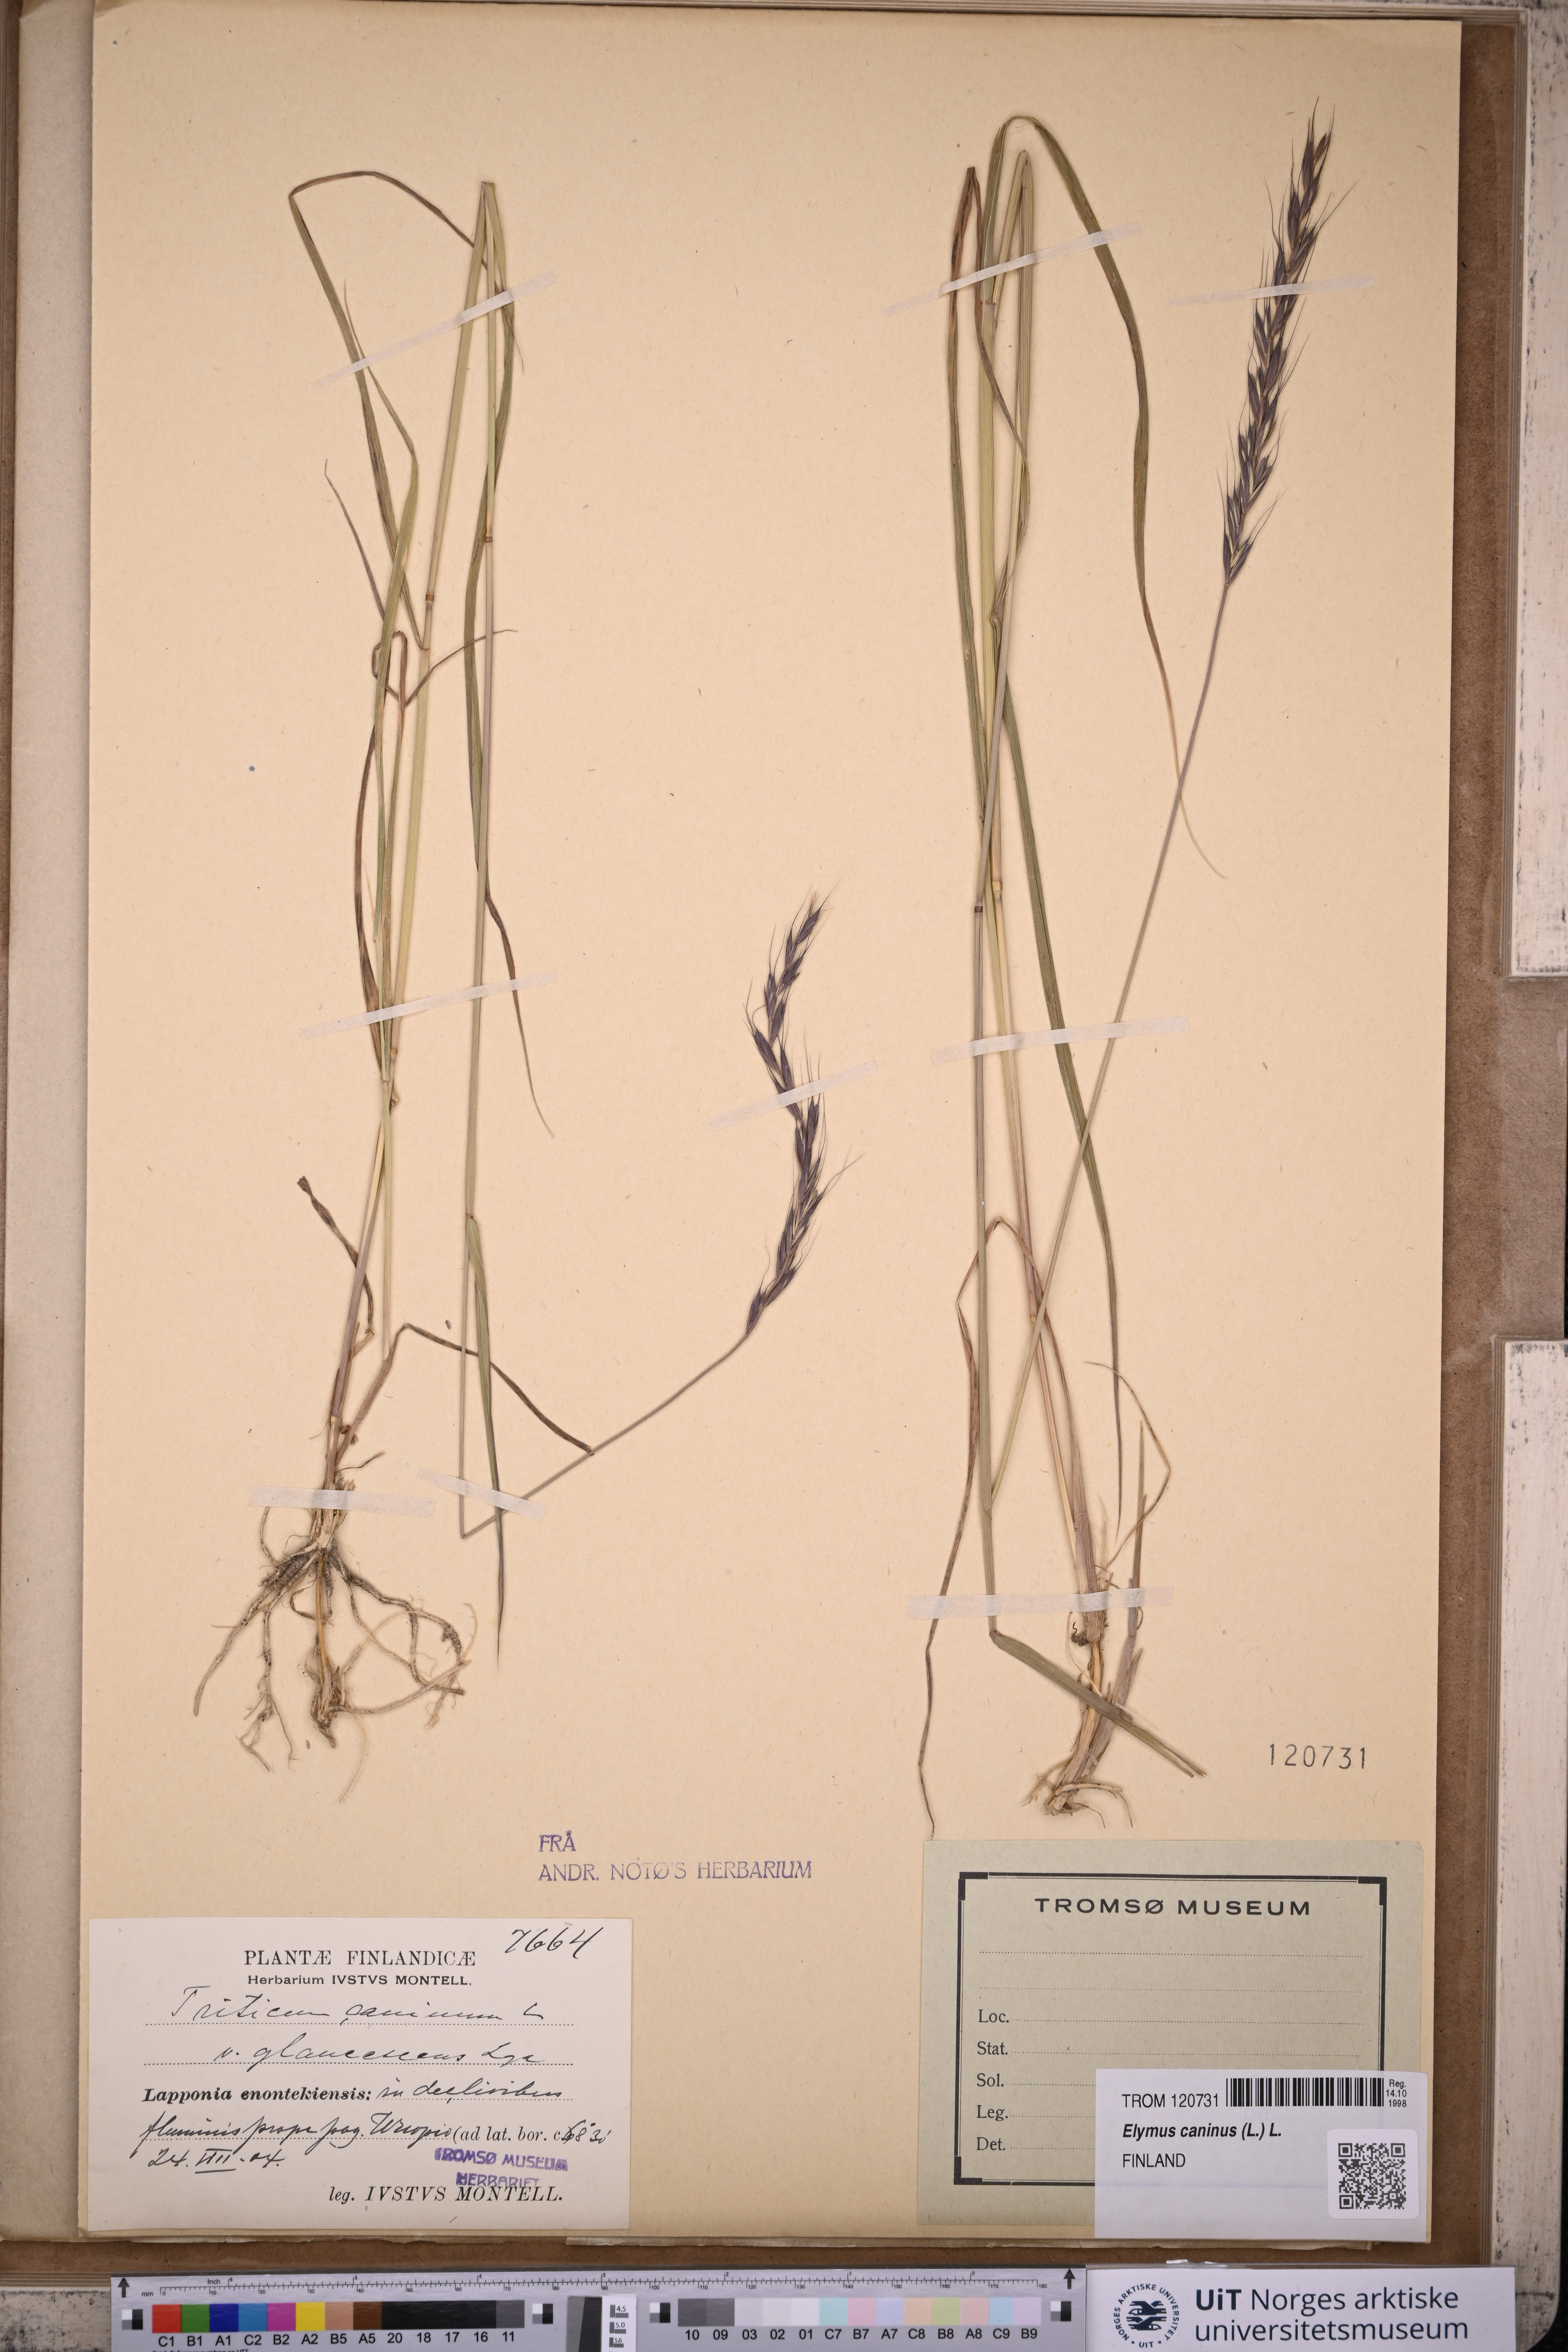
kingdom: Plantae
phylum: Tracheophyta
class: Liliopsida
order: Poales
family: Poaceae
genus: Elymus
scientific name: Elymus caninus
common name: Bearded couch
